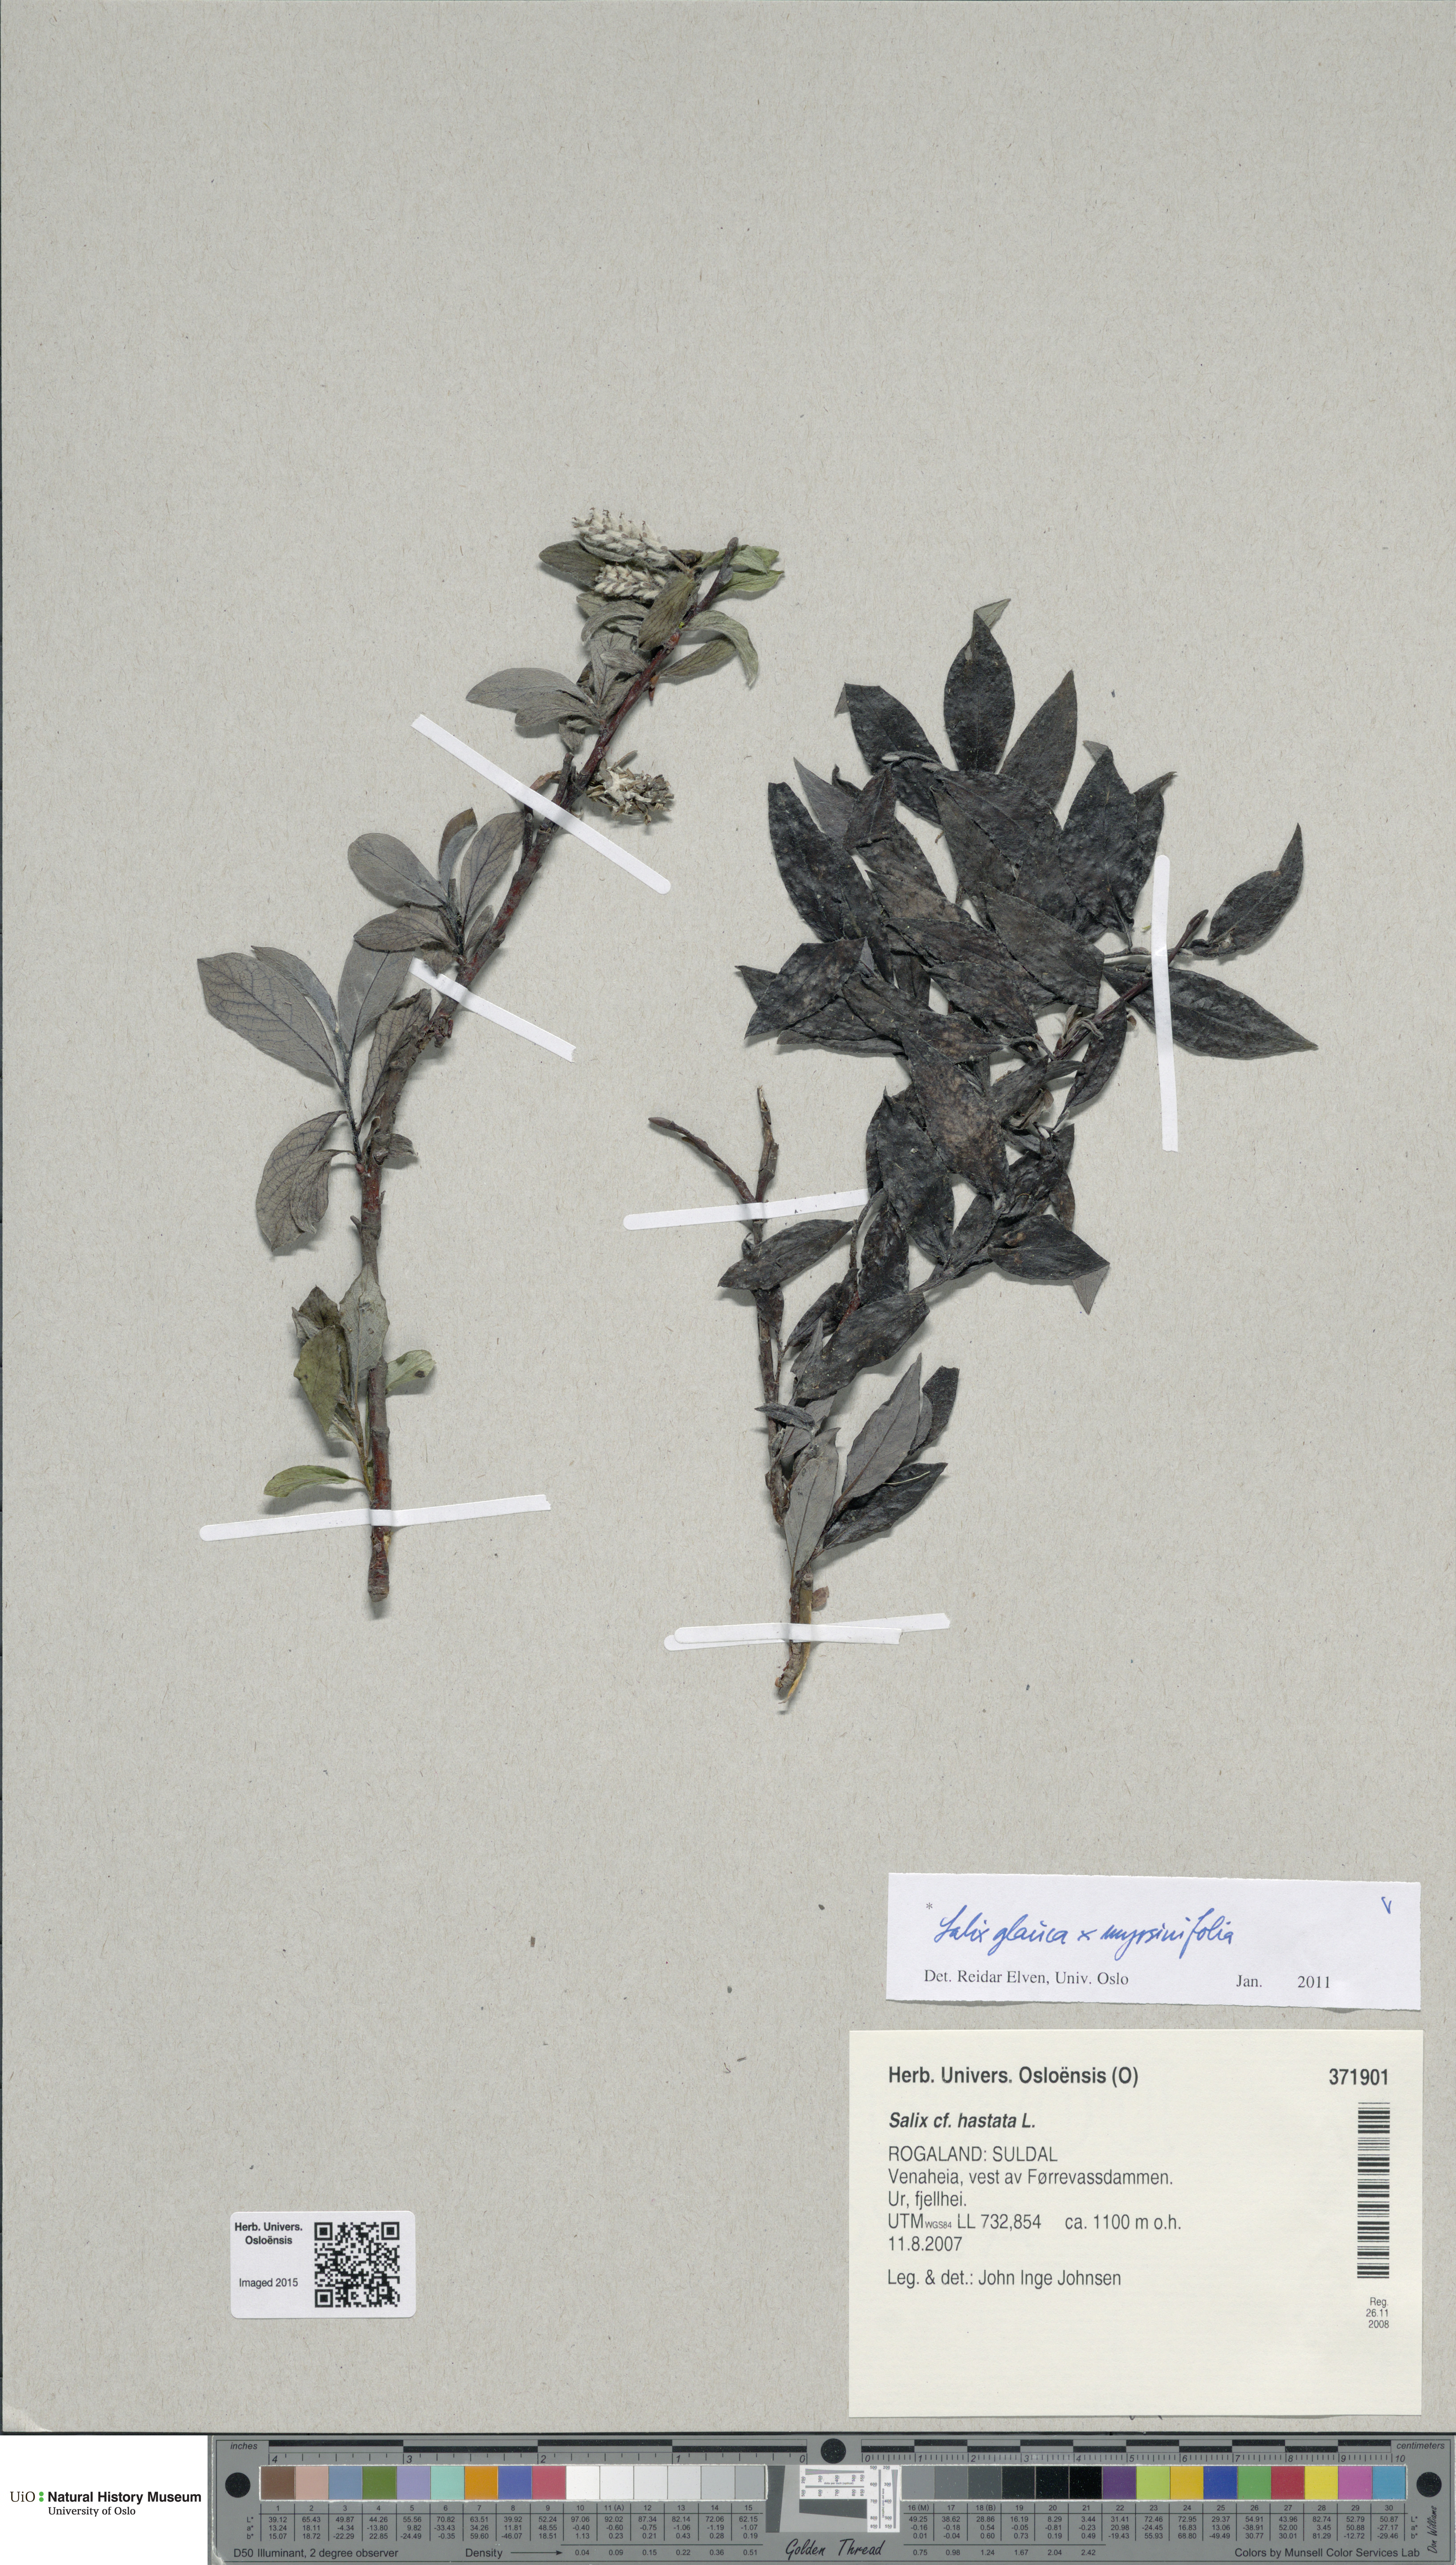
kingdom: Plantae
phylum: Tracheophyta
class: Magnoliopsida
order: Malpighiales
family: Salicaceae
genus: Salix
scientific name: Salix
